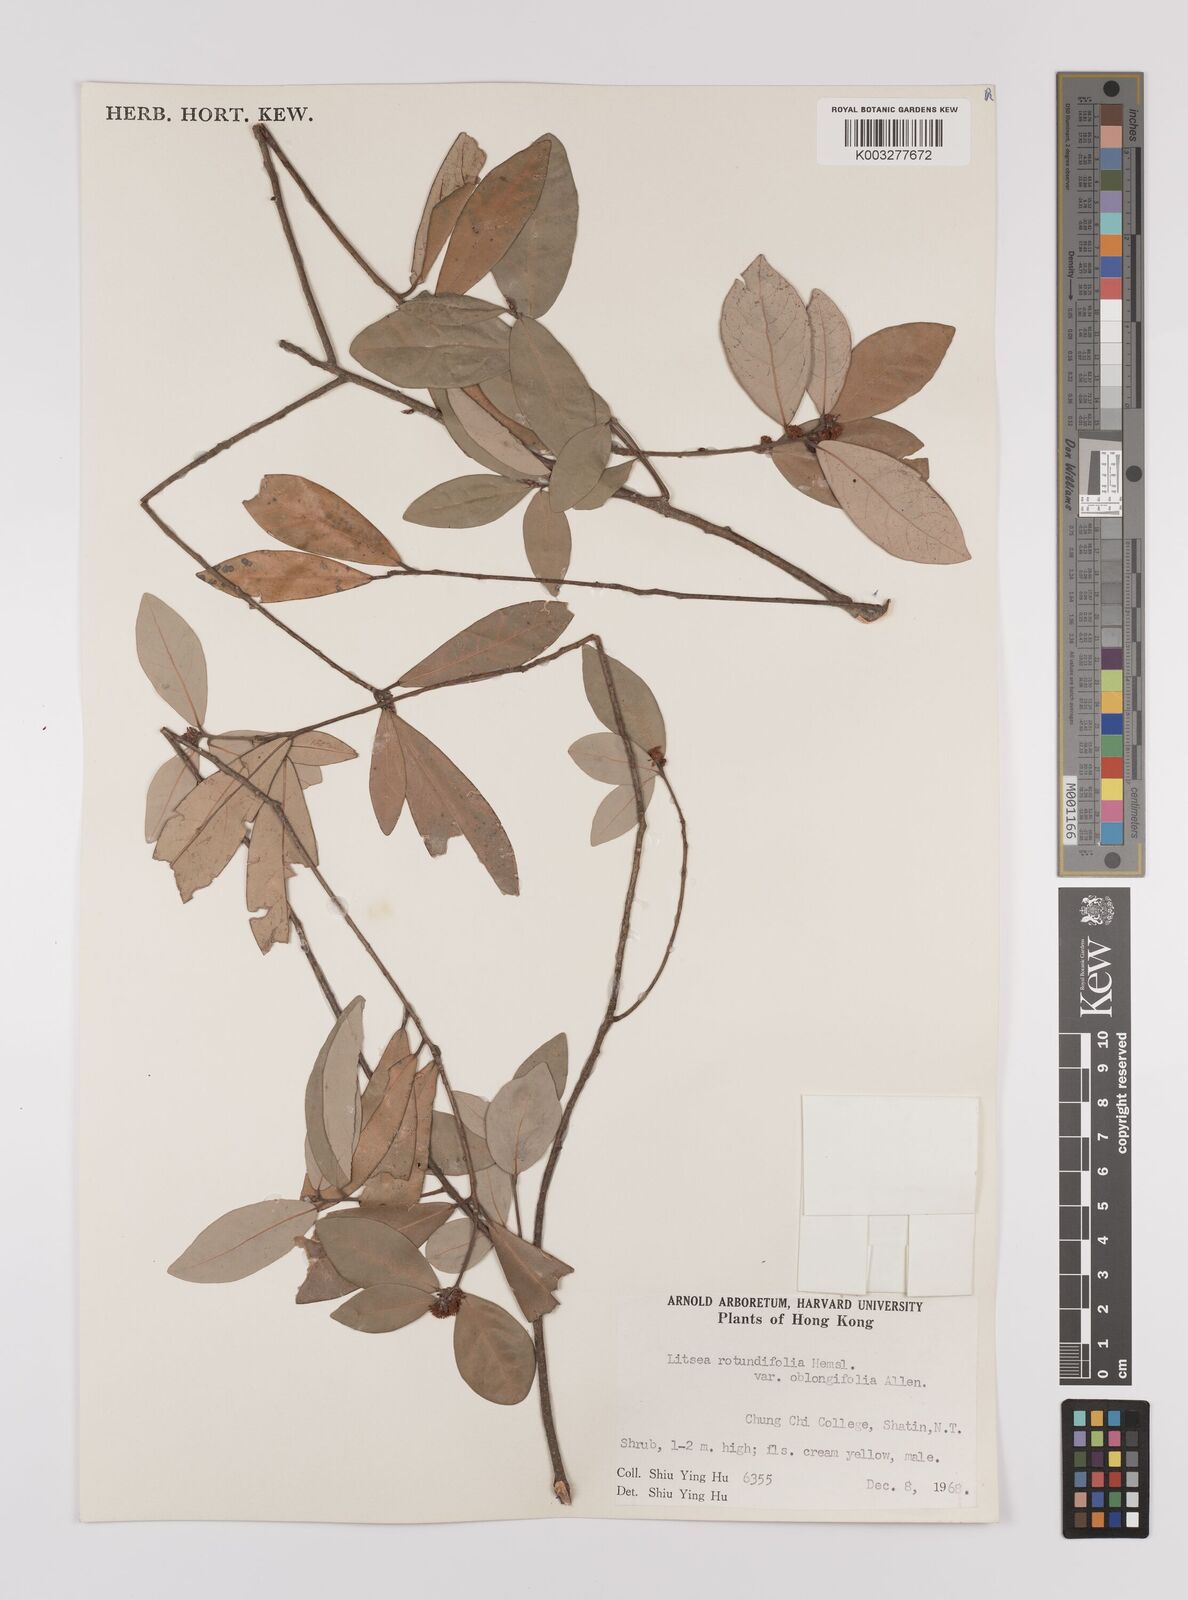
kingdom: Plantae
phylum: Tracheophyta
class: Magnoliopsida
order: Laurales
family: Lauraceae
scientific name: Lauraceae
